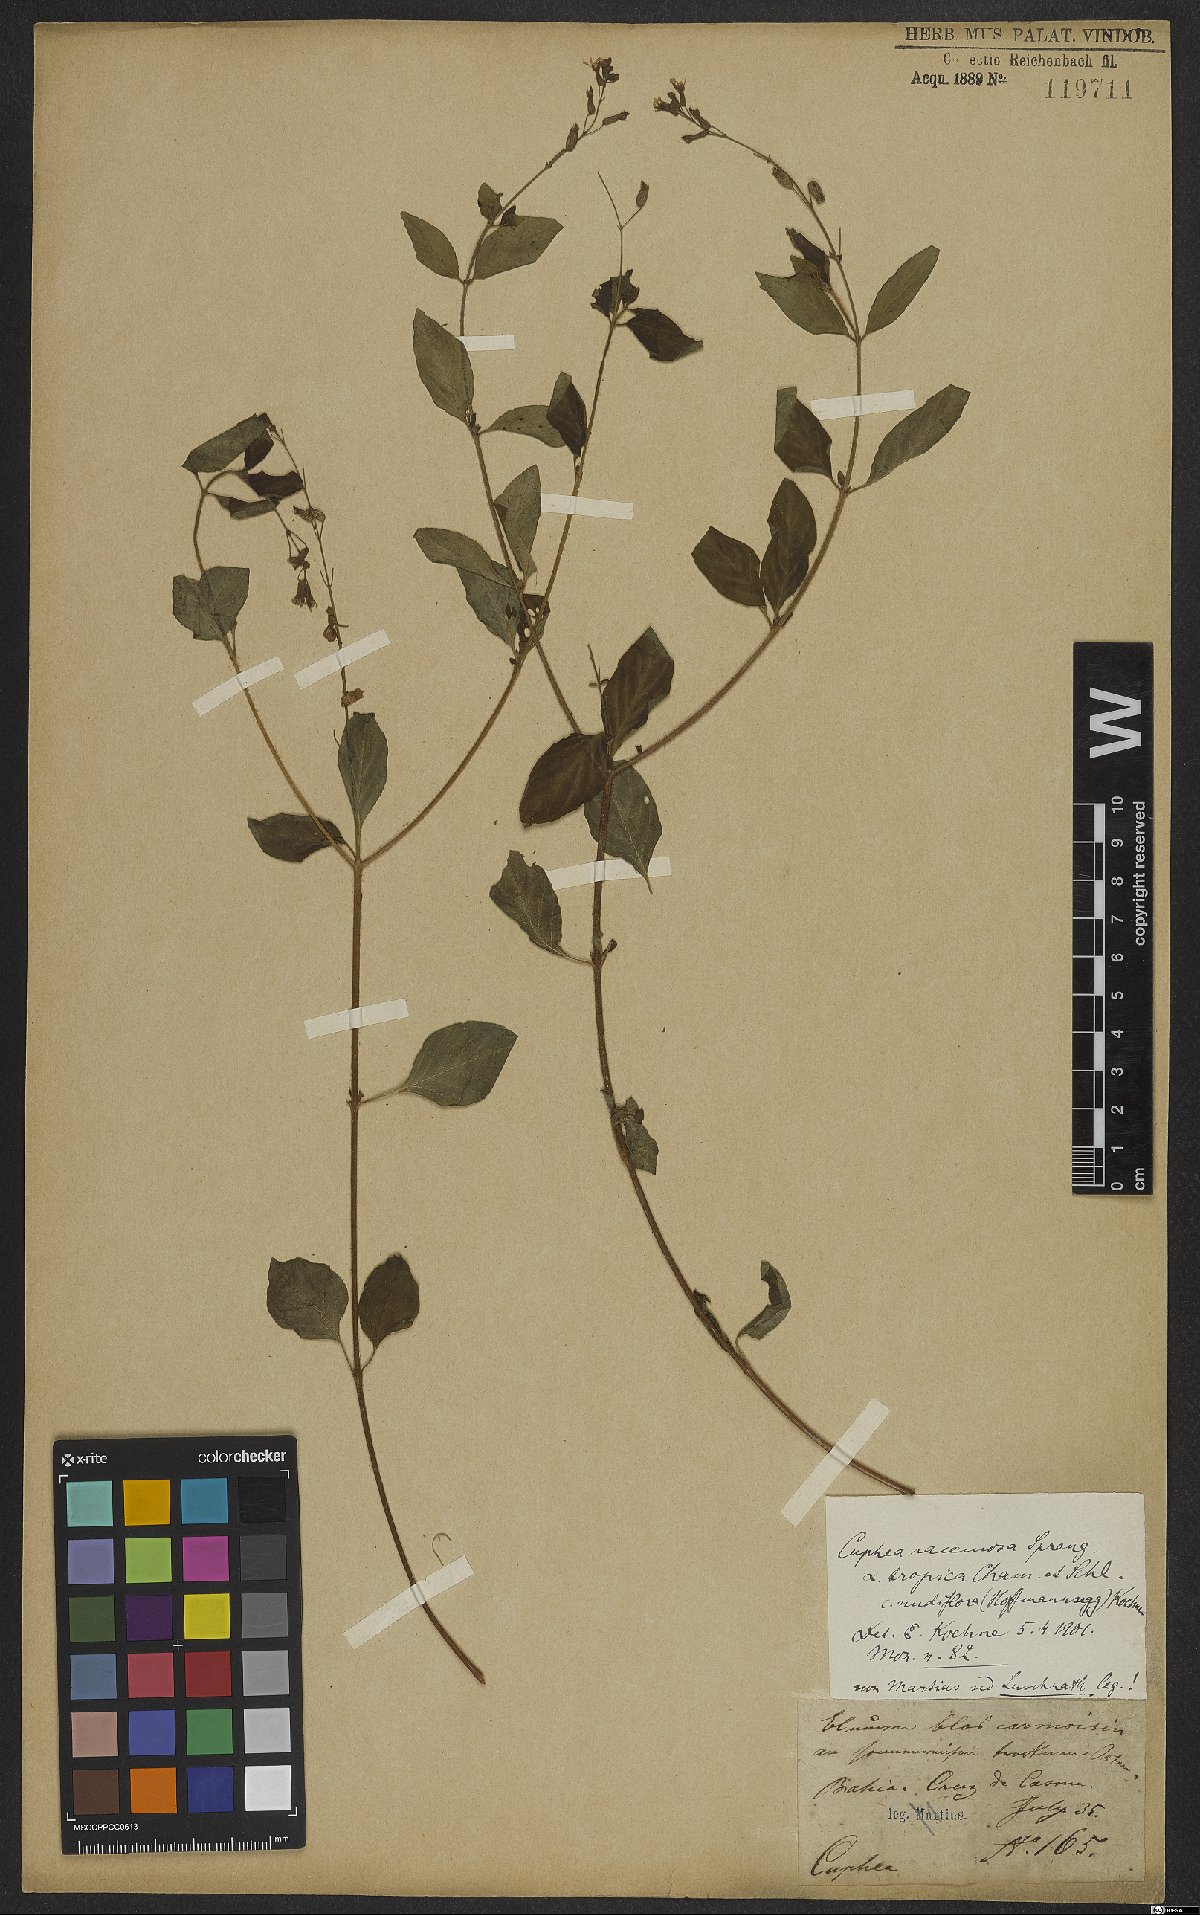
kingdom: Plantae
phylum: Tracheophyta
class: Magnoliopsida
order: Myrtales
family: Lythraceae
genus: Cuphea
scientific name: Cuphea racemosa
